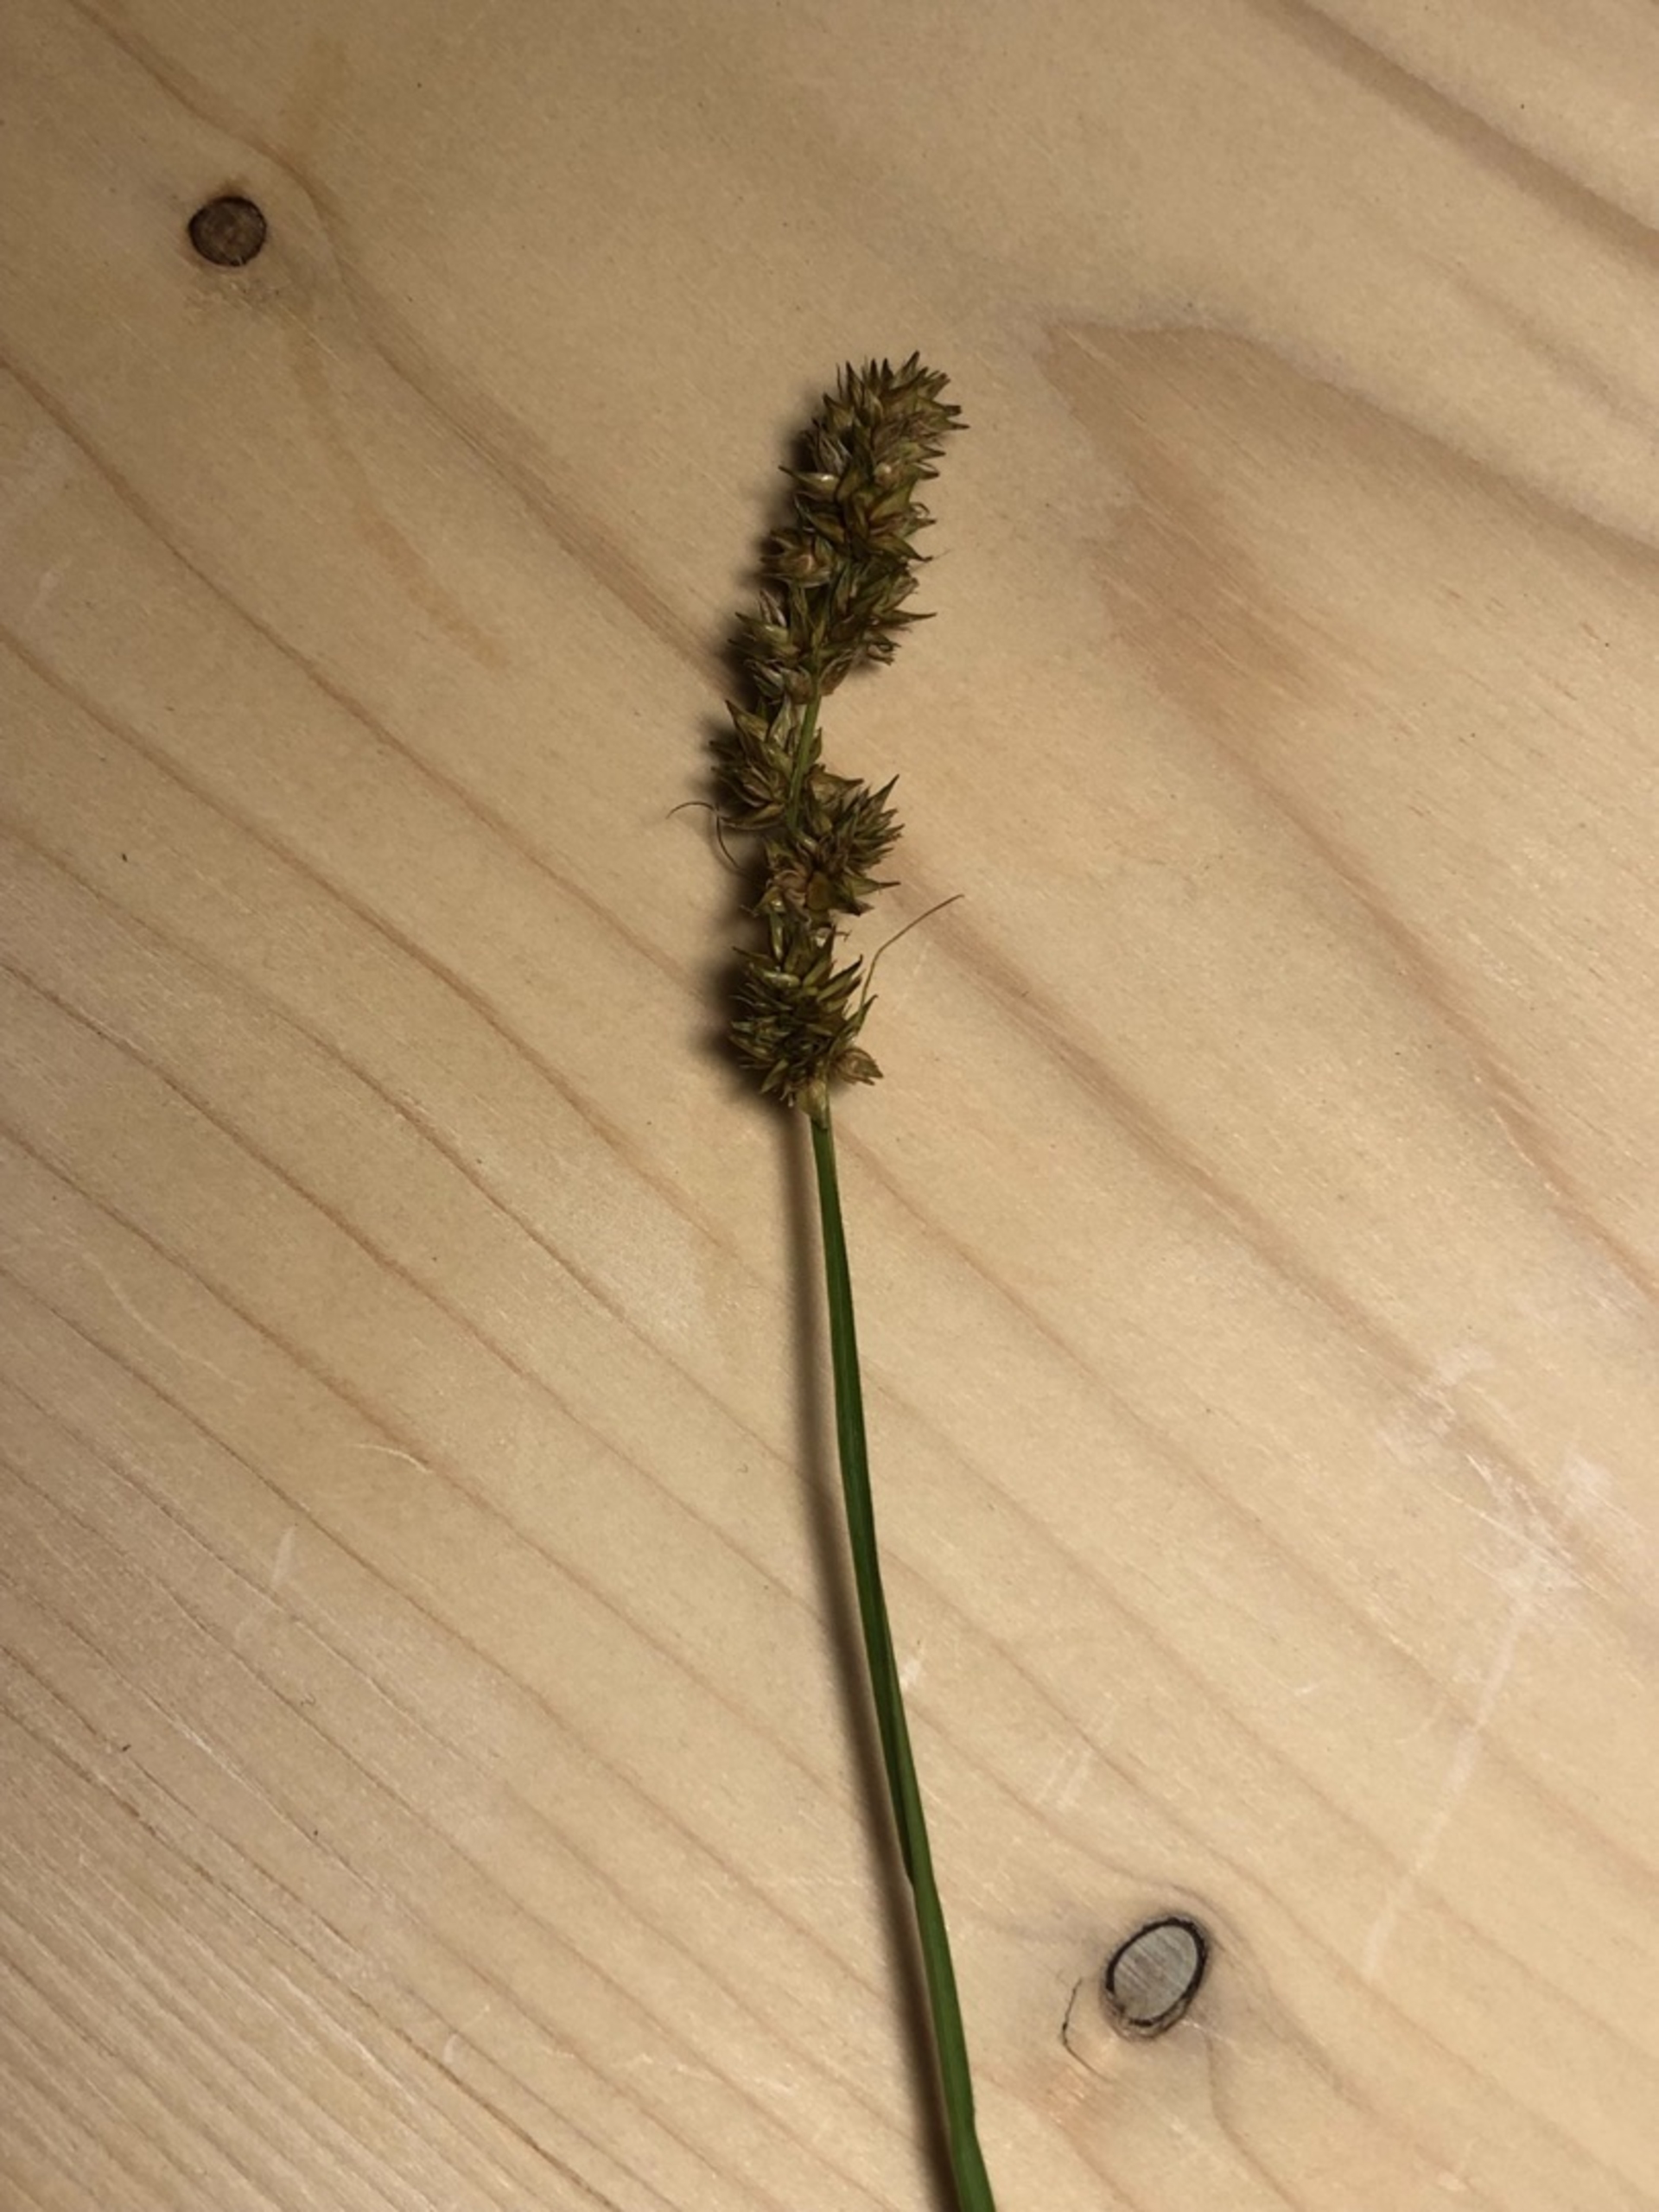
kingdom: Plantae
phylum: Tracheophyta
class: Liliopsida
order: Poales
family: Cyperaceae
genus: Carex
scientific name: Carex otrubae
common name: Sylt-star
